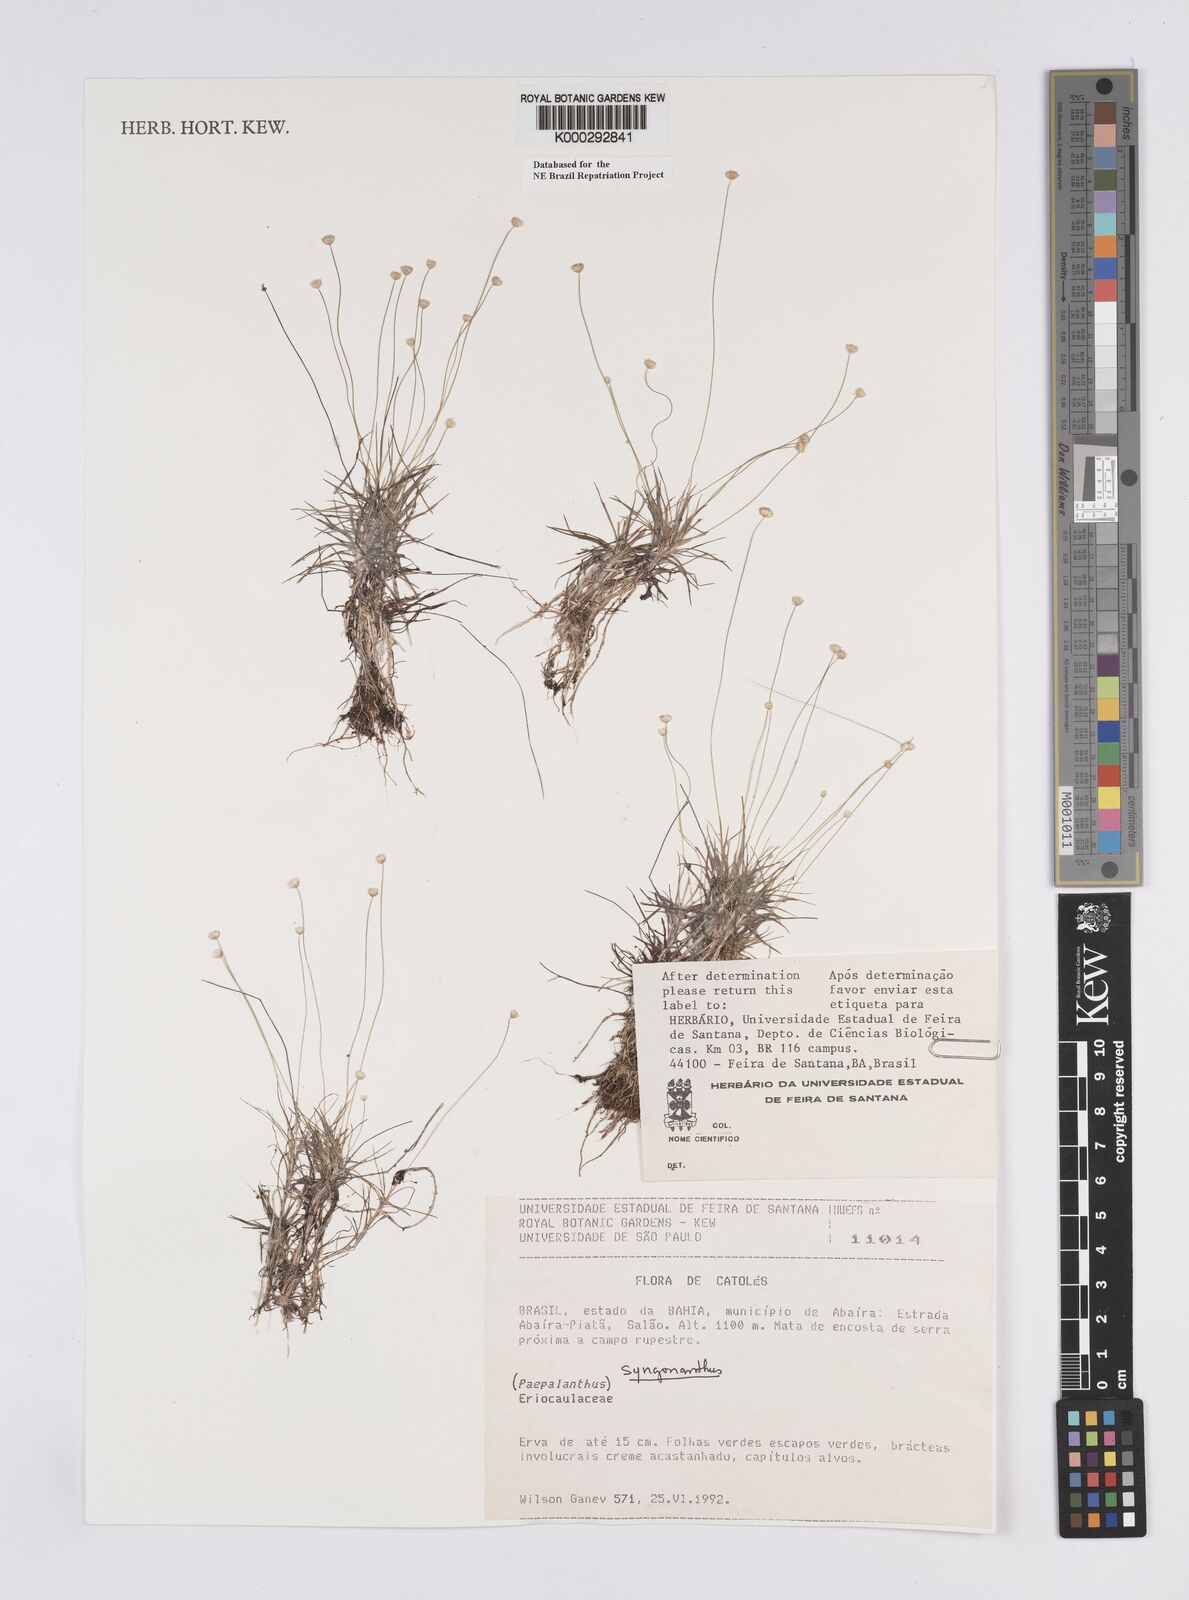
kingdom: Plantae
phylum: Tracheophyta
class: Liliopsida
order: Poales
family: Eriocaulaceae
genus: Syngonanthus
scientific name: Syngonanthus
